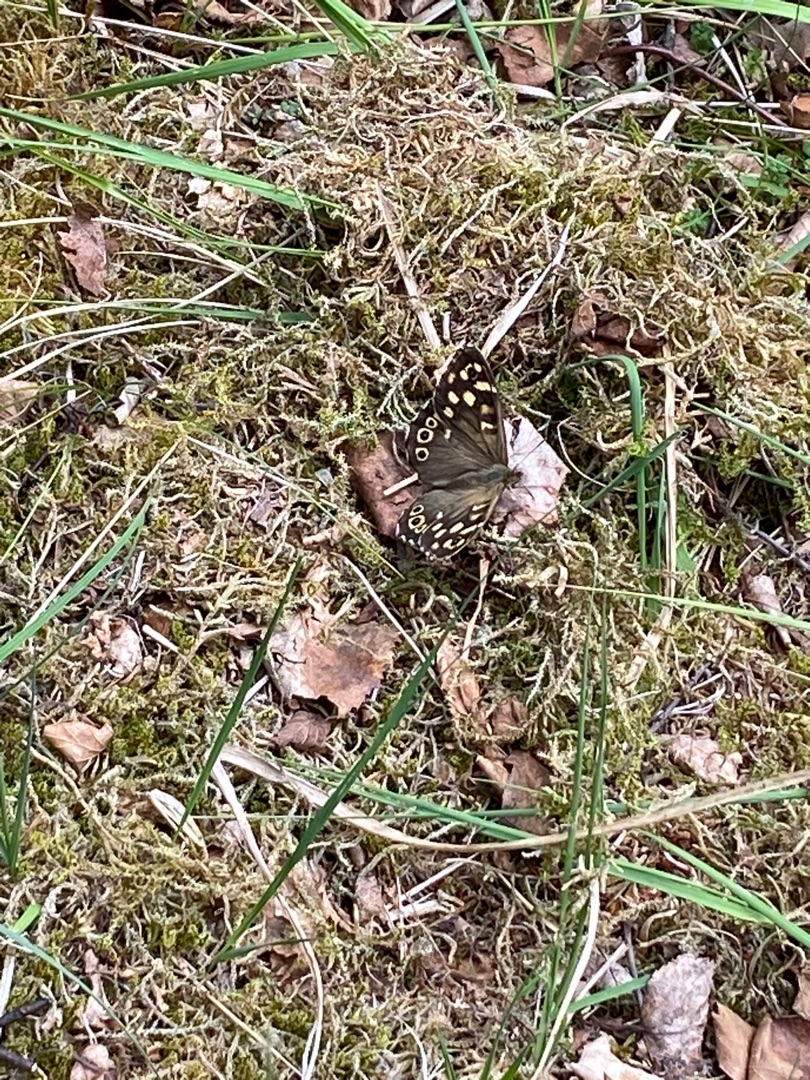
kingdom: Animalia
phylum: Arthropoda
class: Insecta
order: Lepidoptera
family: Nymphalidae
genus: Pararge
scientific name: Pararge aegeria
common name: Skovrandøje
